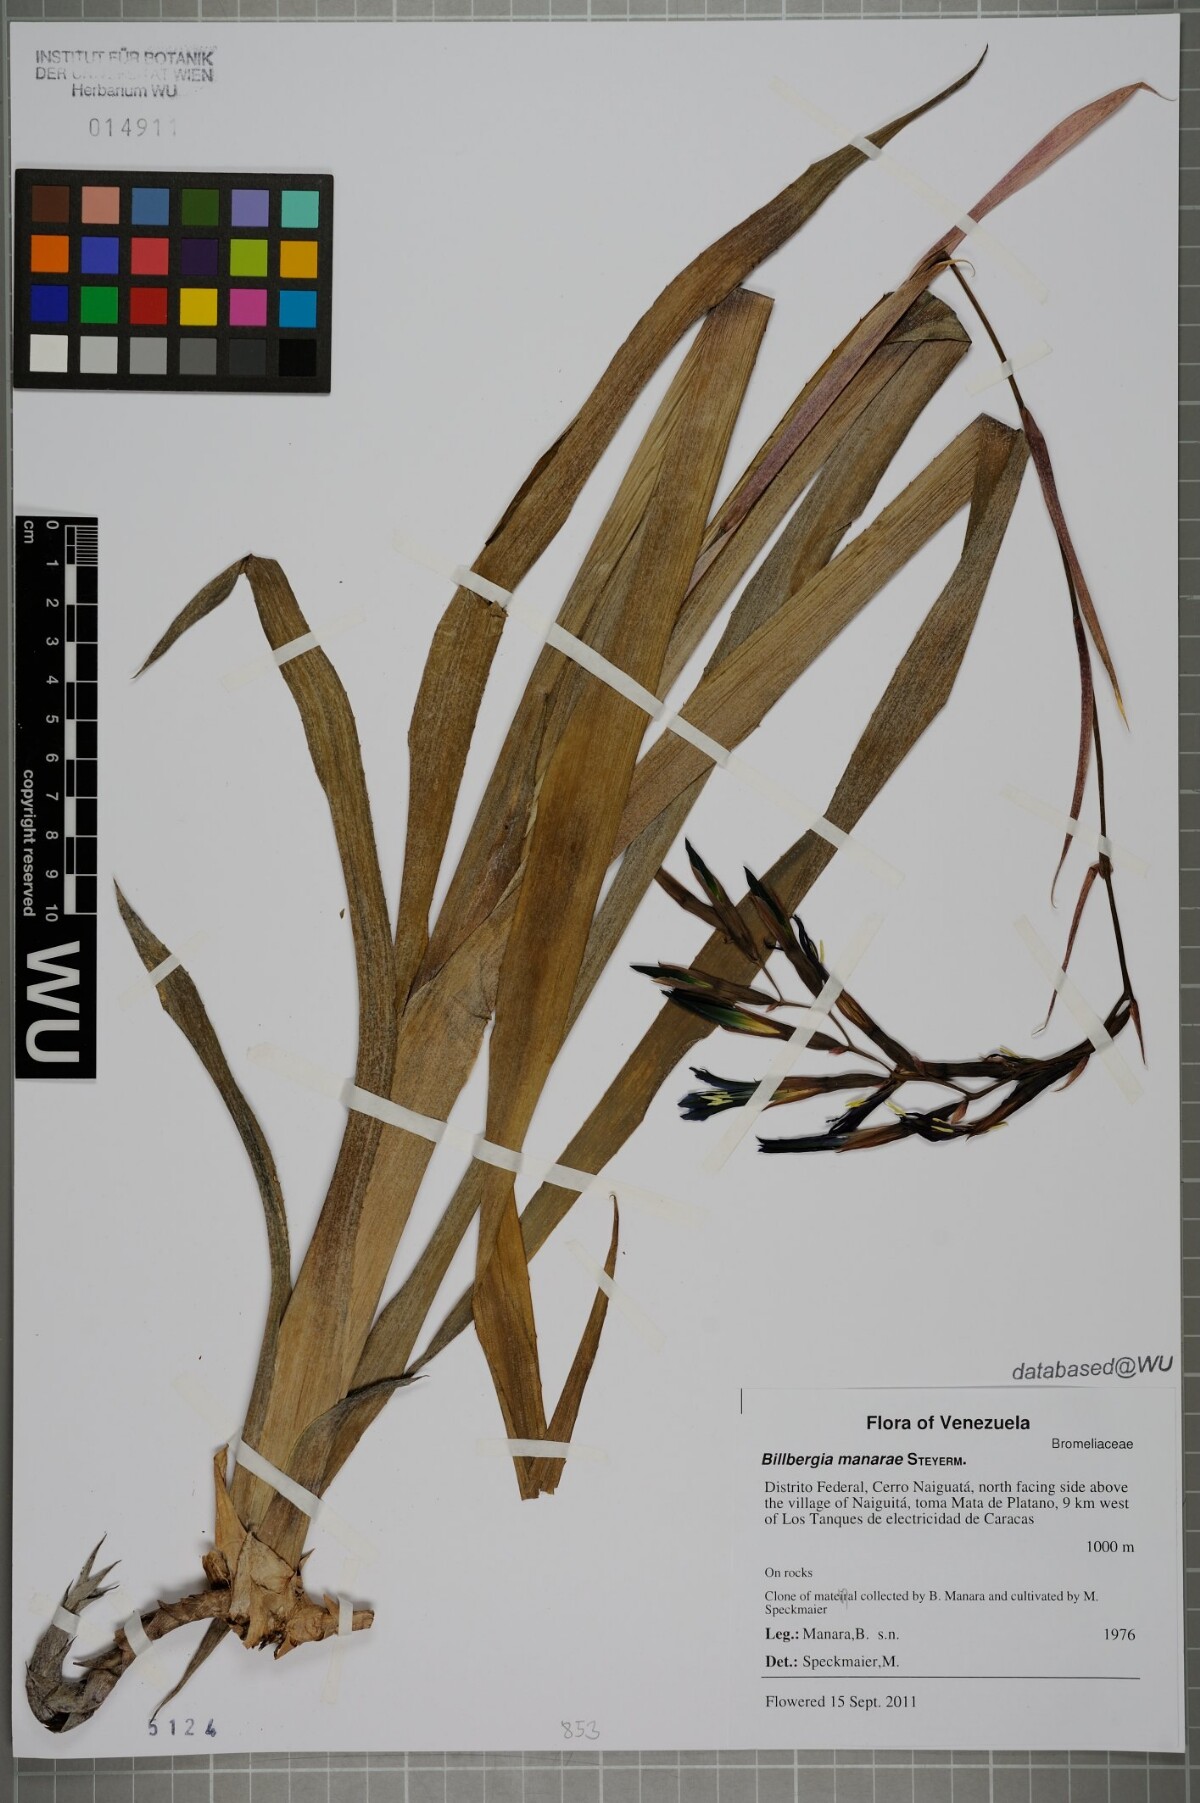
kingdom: Plantae
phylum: Tracheophyta
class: Liliopsida
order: Poales
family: Bromeliaceae
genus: Billbergia
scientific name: Billbergia manarae
